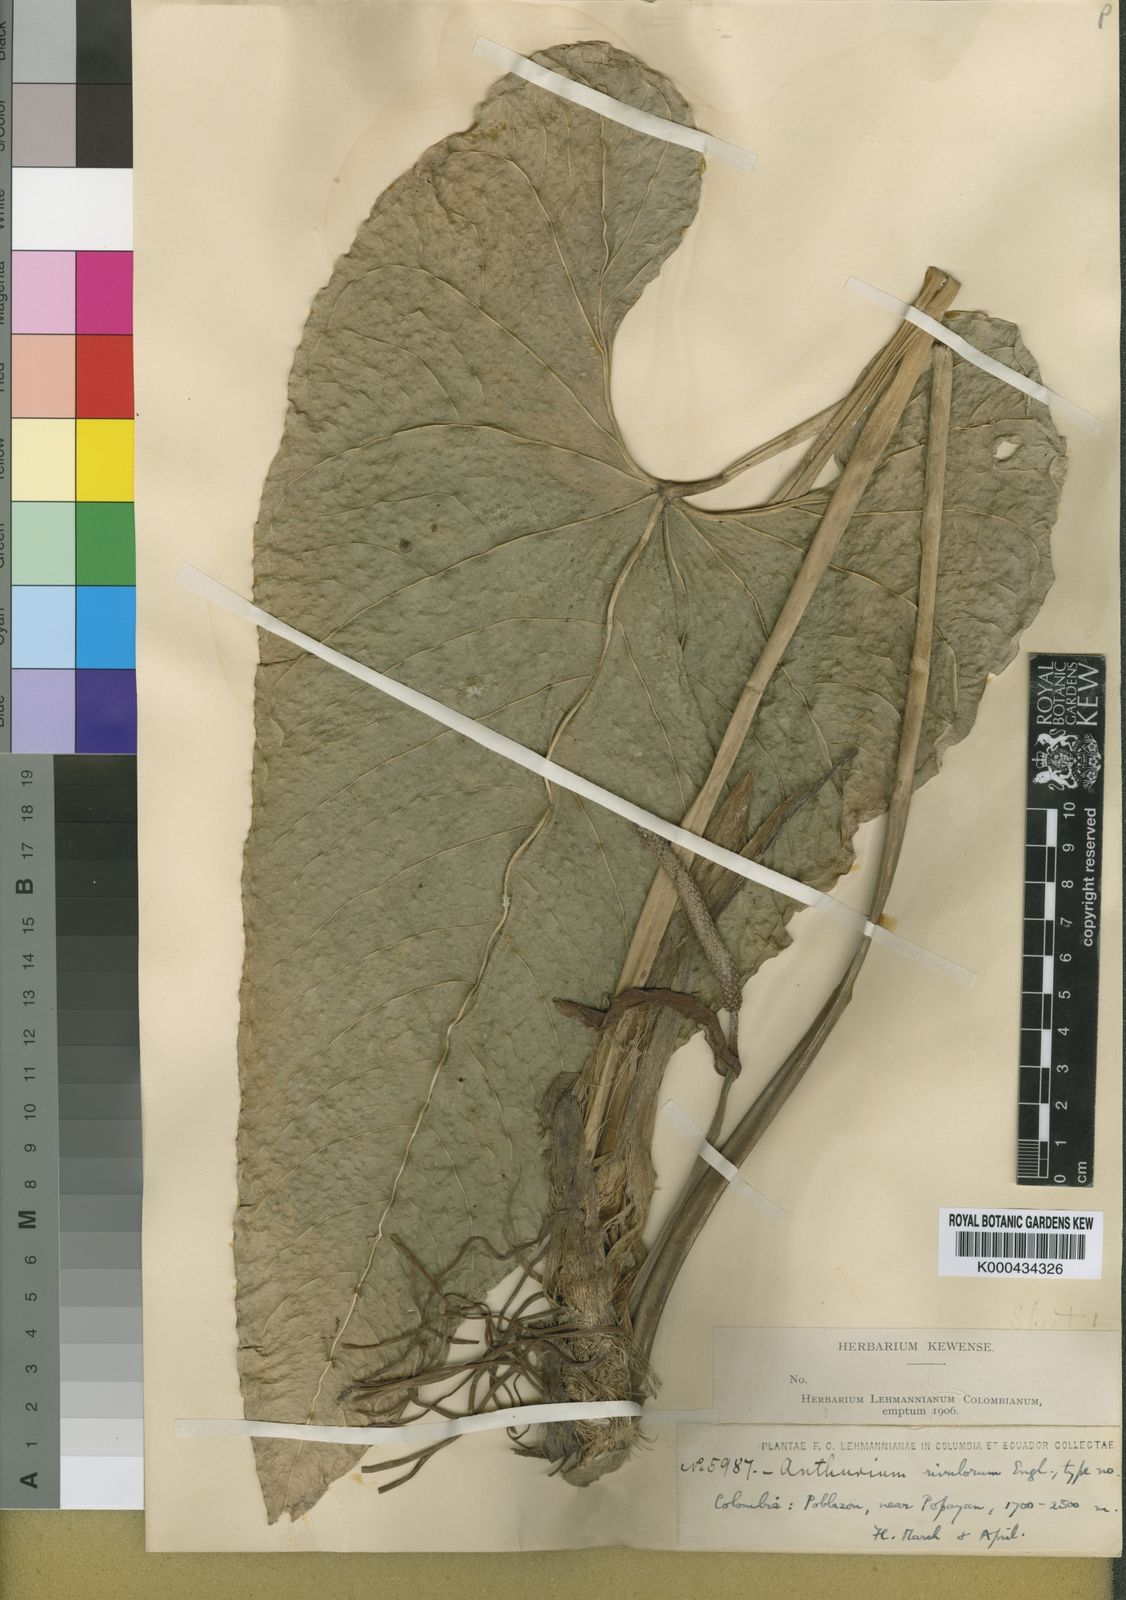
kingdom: Plantae
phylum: Tracheophyta
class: Liliopsida
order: Alismatales
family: Araceae
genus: Anthurium
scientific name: Anthurium sanguineum
